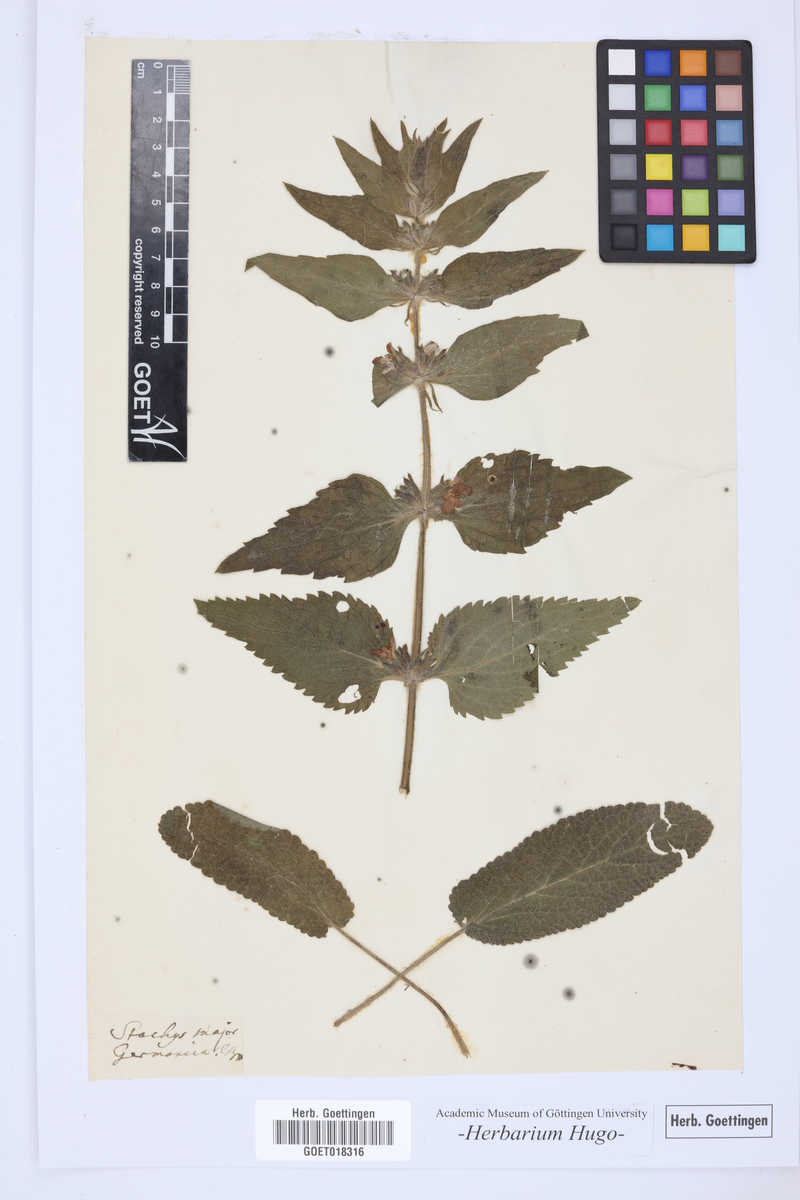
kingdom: Plantae
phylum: Tracheophyta
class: Magnoliopsida
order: Lamiales
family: Lamiaceae
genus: Stachys
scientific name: Stachys germanica
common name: Downy woundwort
